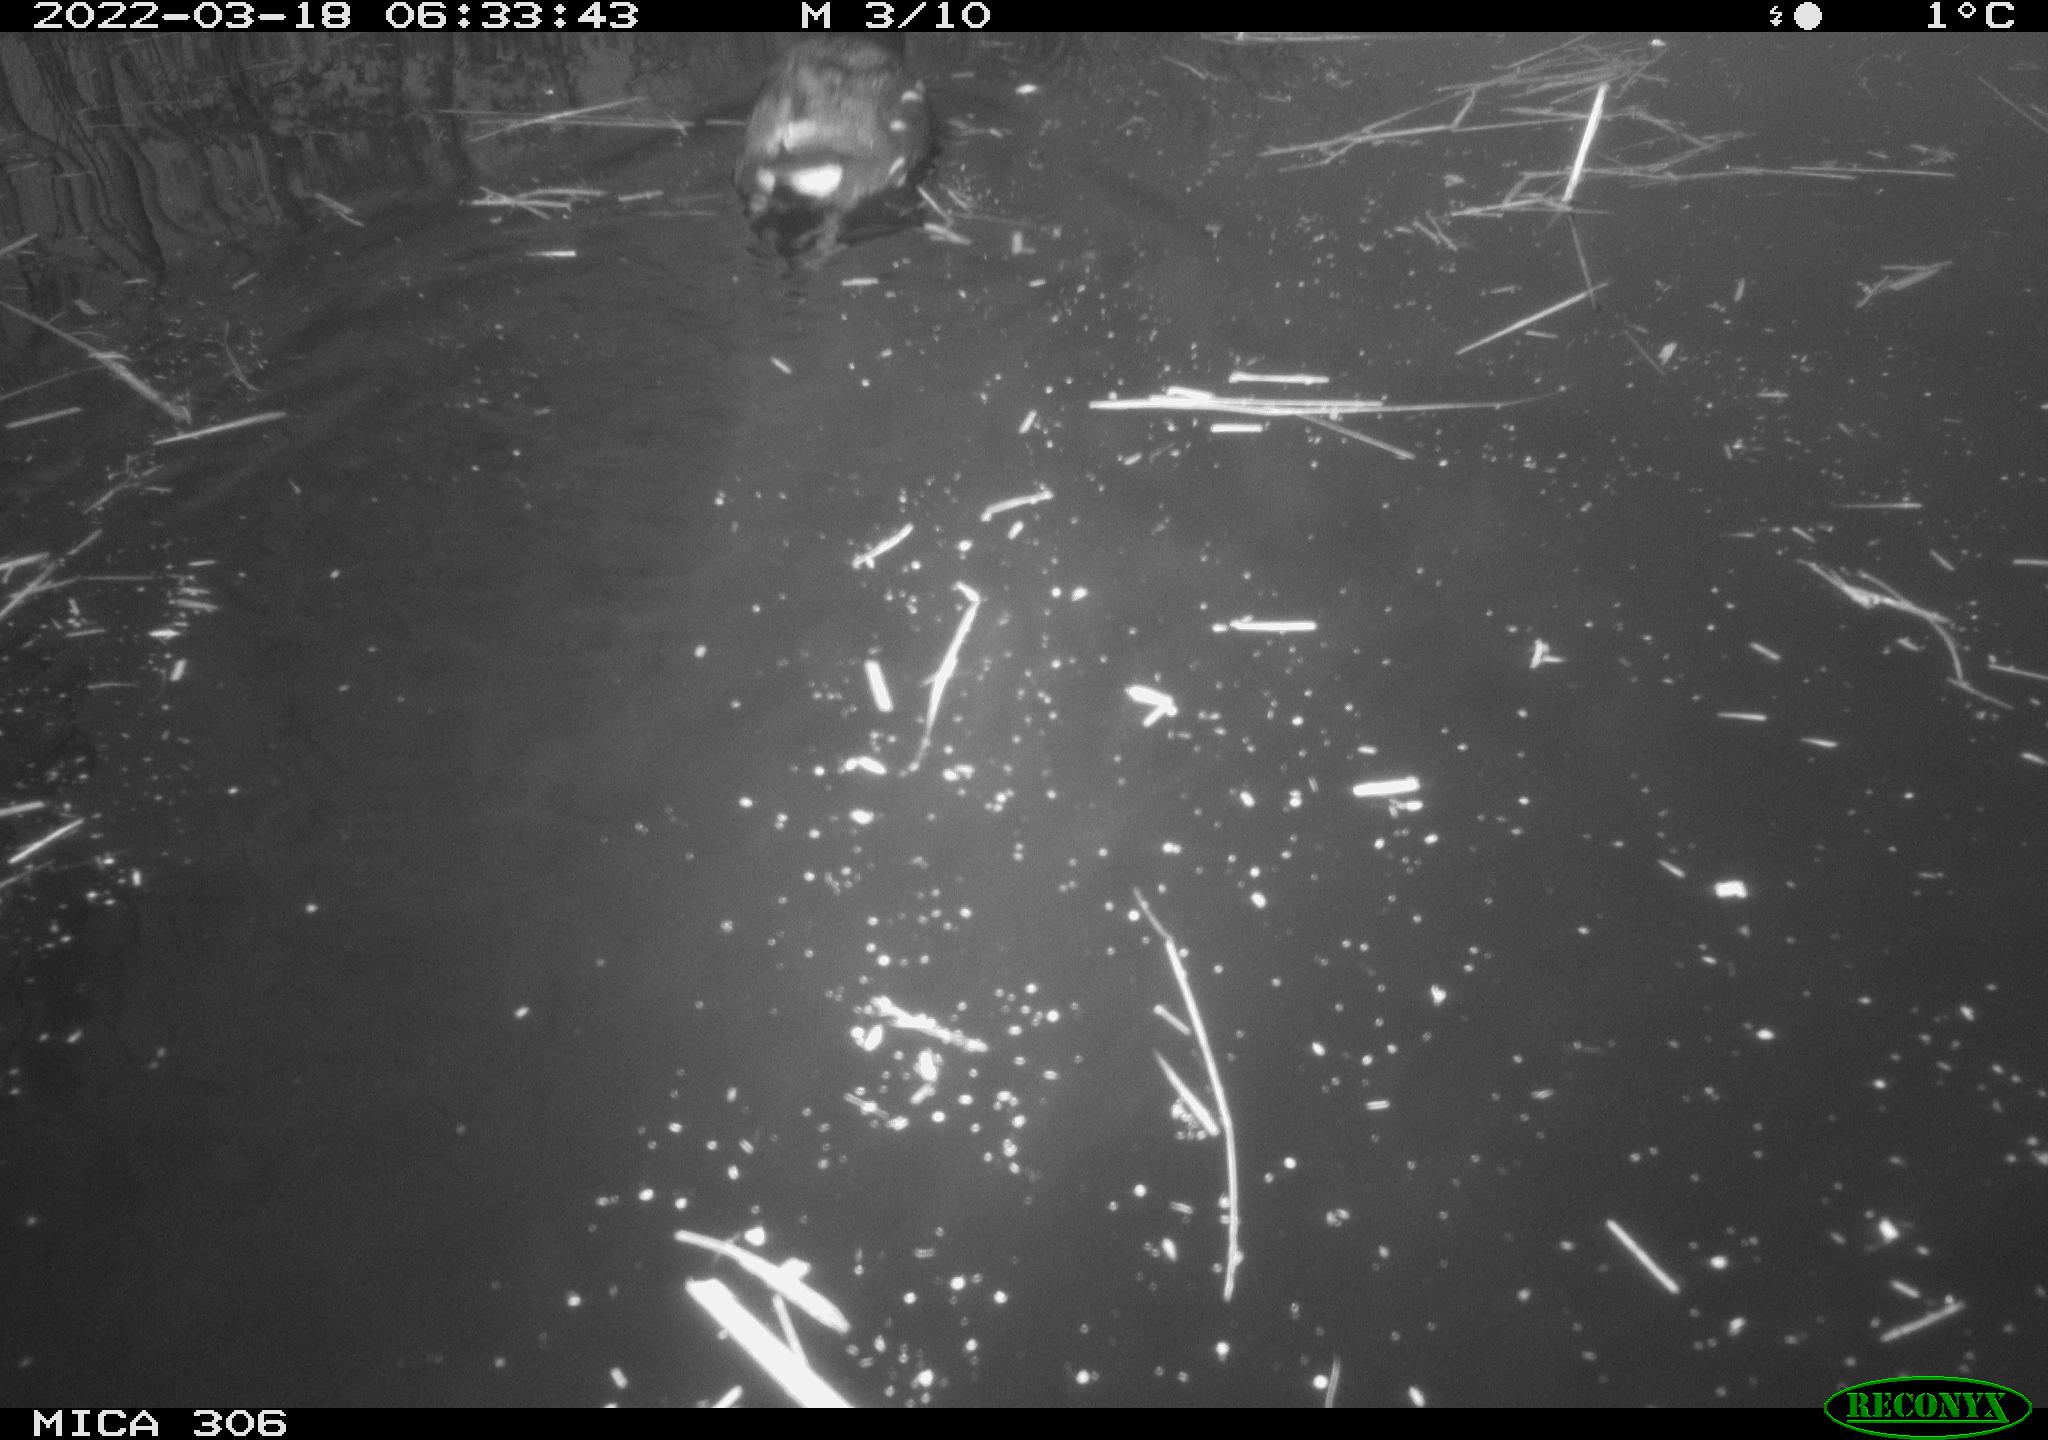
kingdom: Animalia
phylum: Chordata
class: Aves
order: Gruiformes
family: Rallidae
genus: Gallinula
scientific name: Gallinula chloropus
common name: Common moorhen
